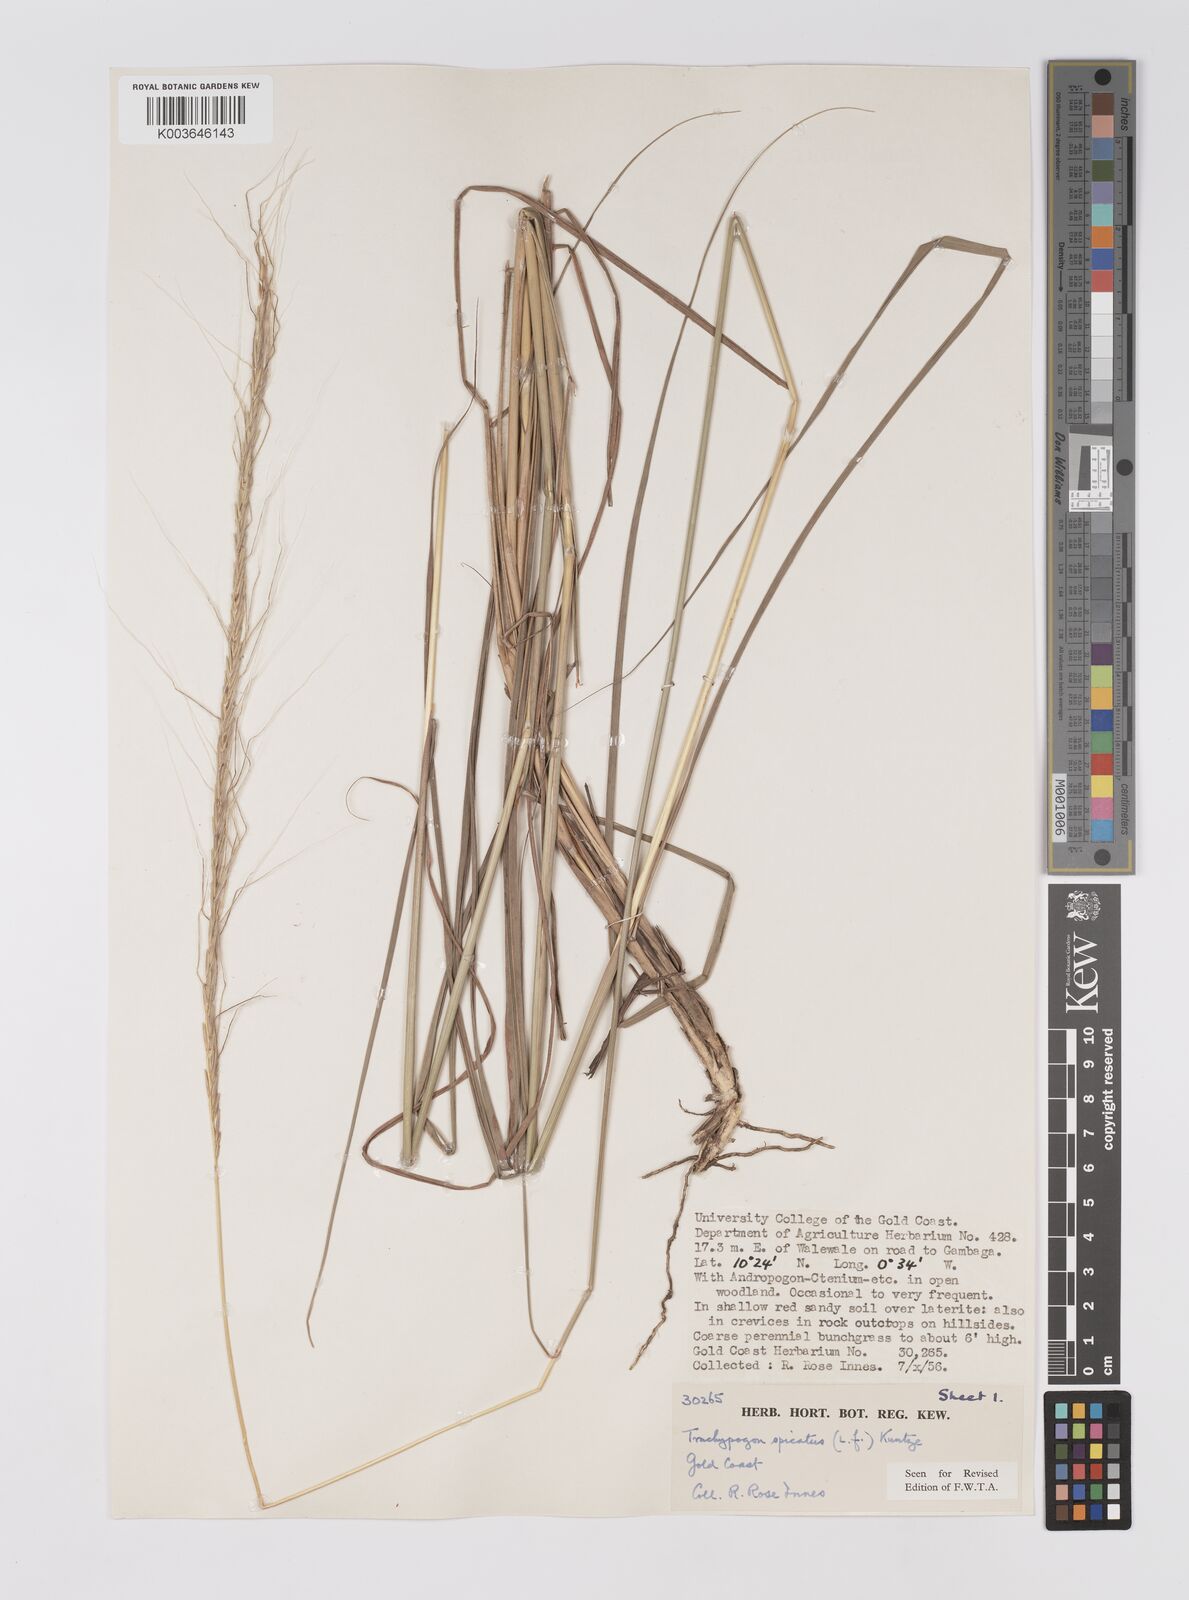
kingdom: Plantae
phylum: Tracheophyta
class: Liliopsida
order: Poales
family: Poaceae
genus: Trachypogon
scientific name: Trachypogon spicatus
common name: Crinkle-awn
